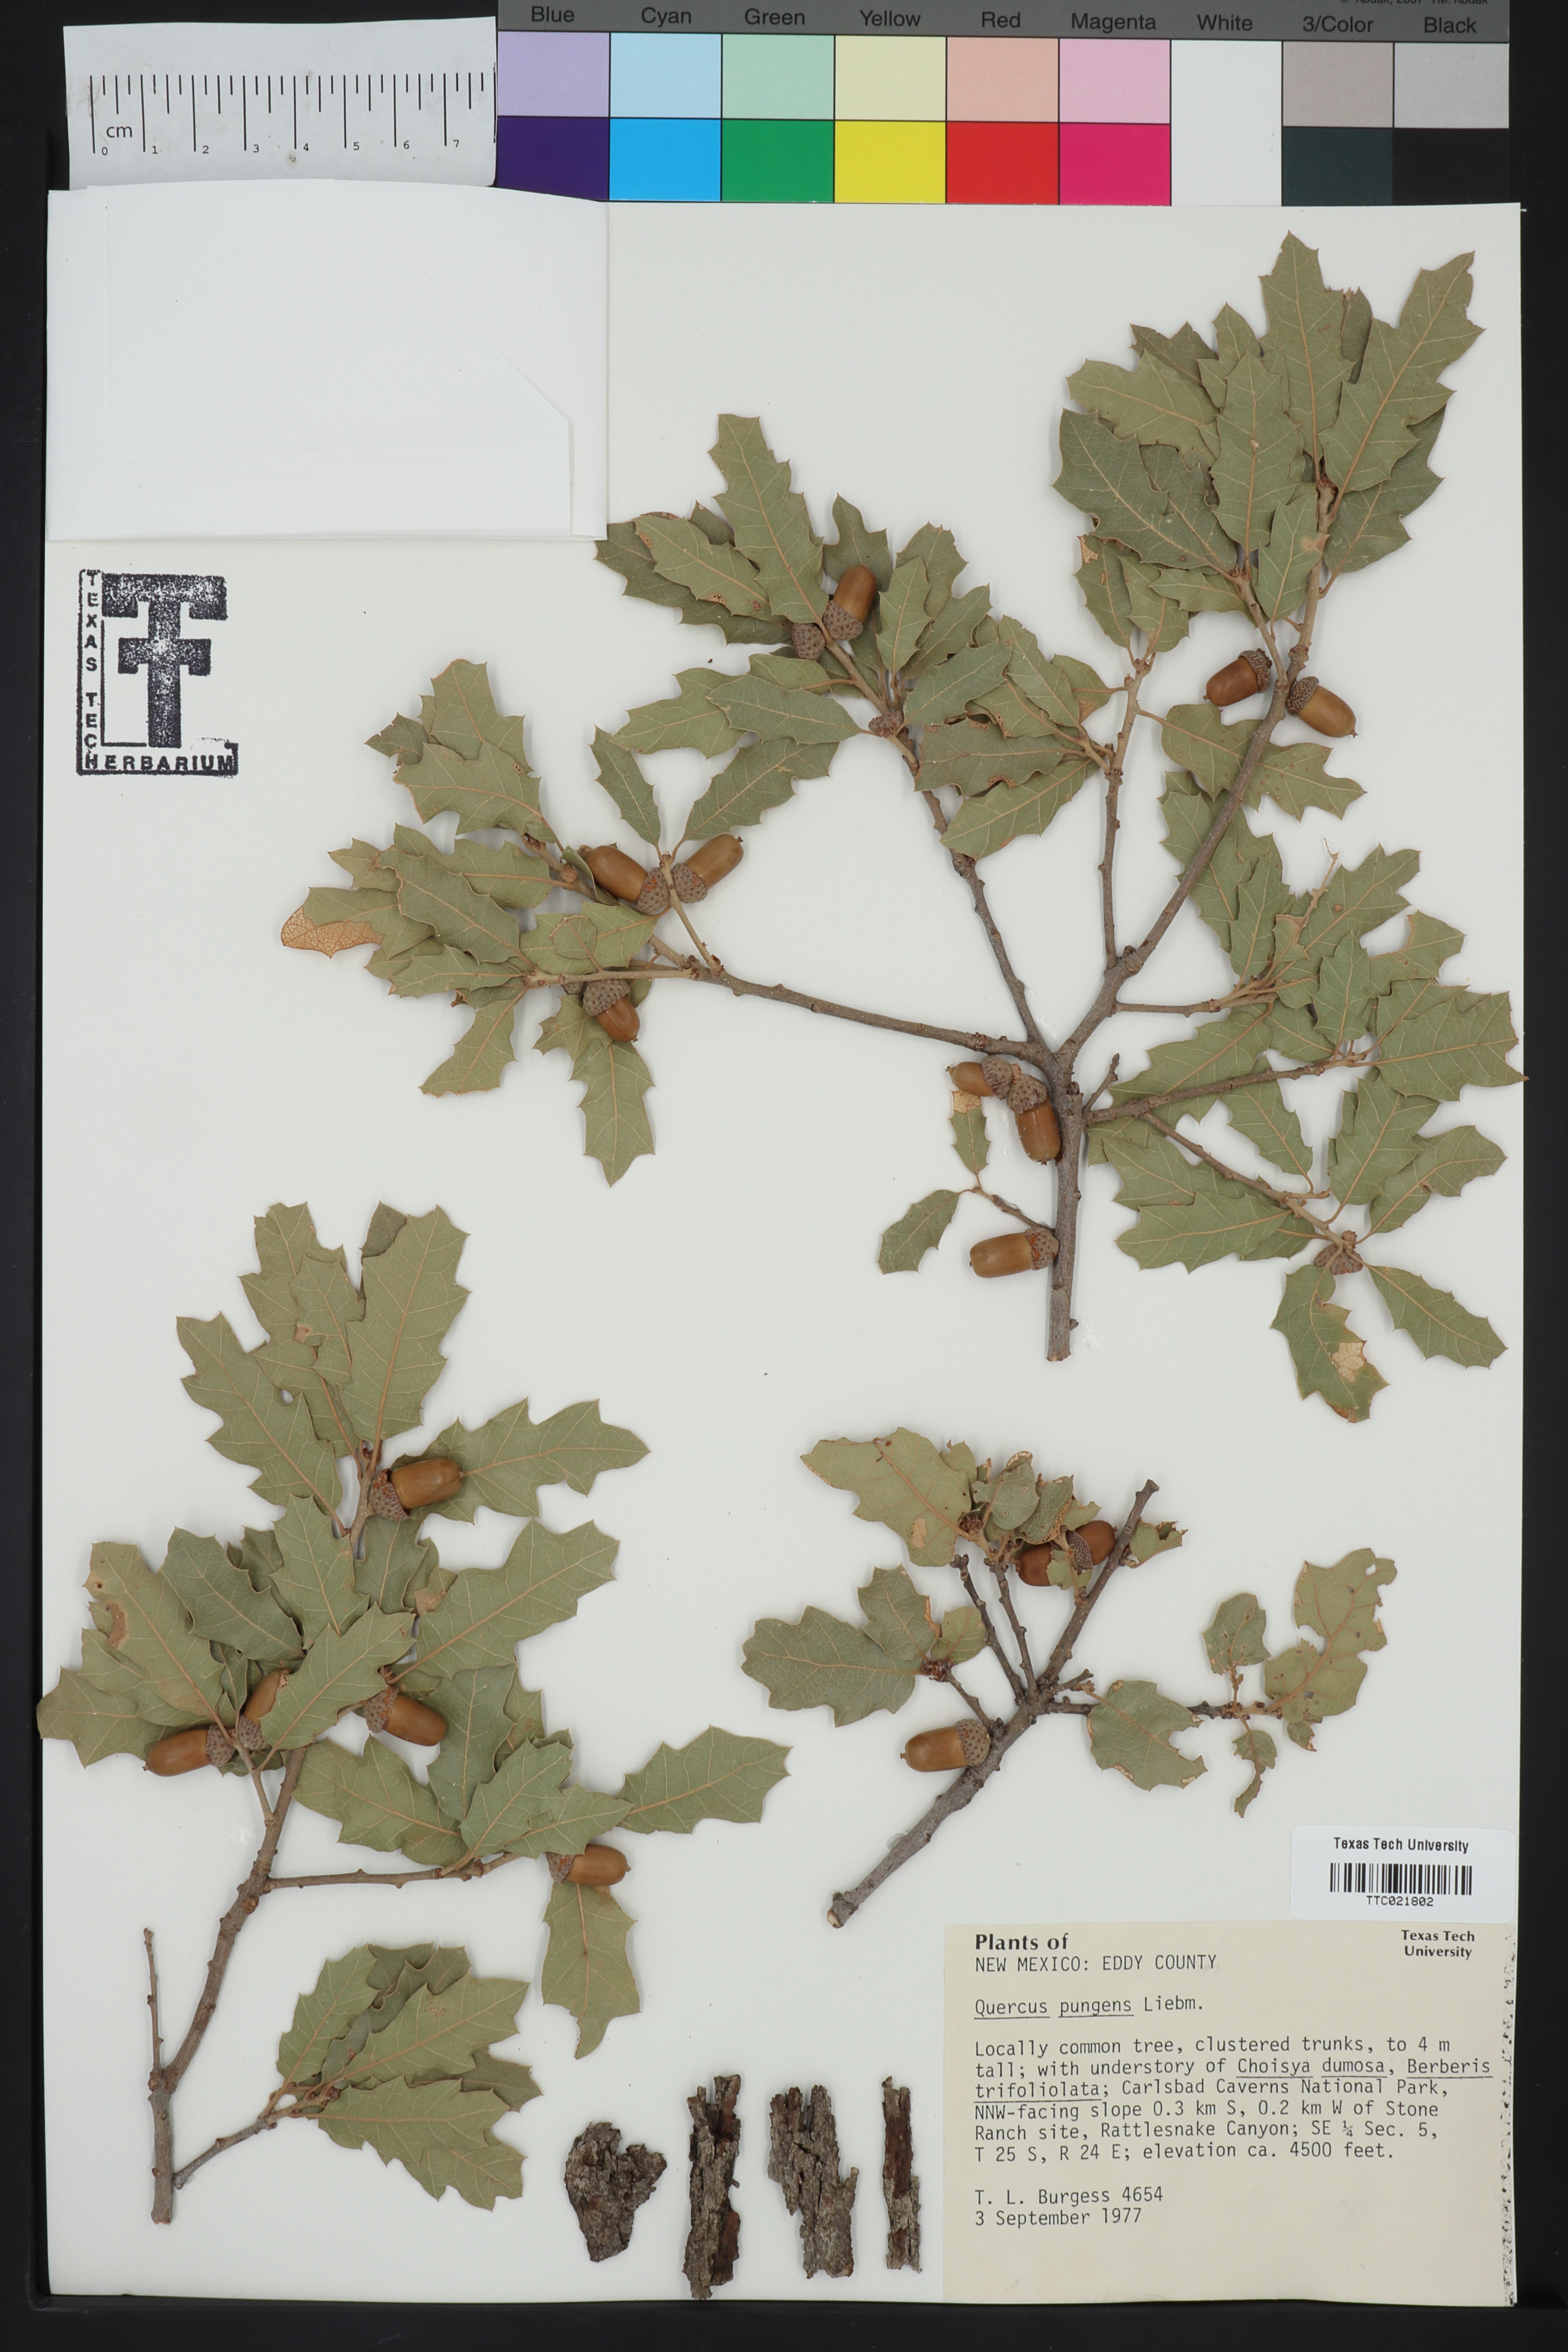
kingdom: Plantae
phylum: Tracheophyta
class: Magnoliopsida
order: Fagales
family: Fagaceae
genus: Quercus
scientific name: Quercus pungens
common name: Pungent oak
